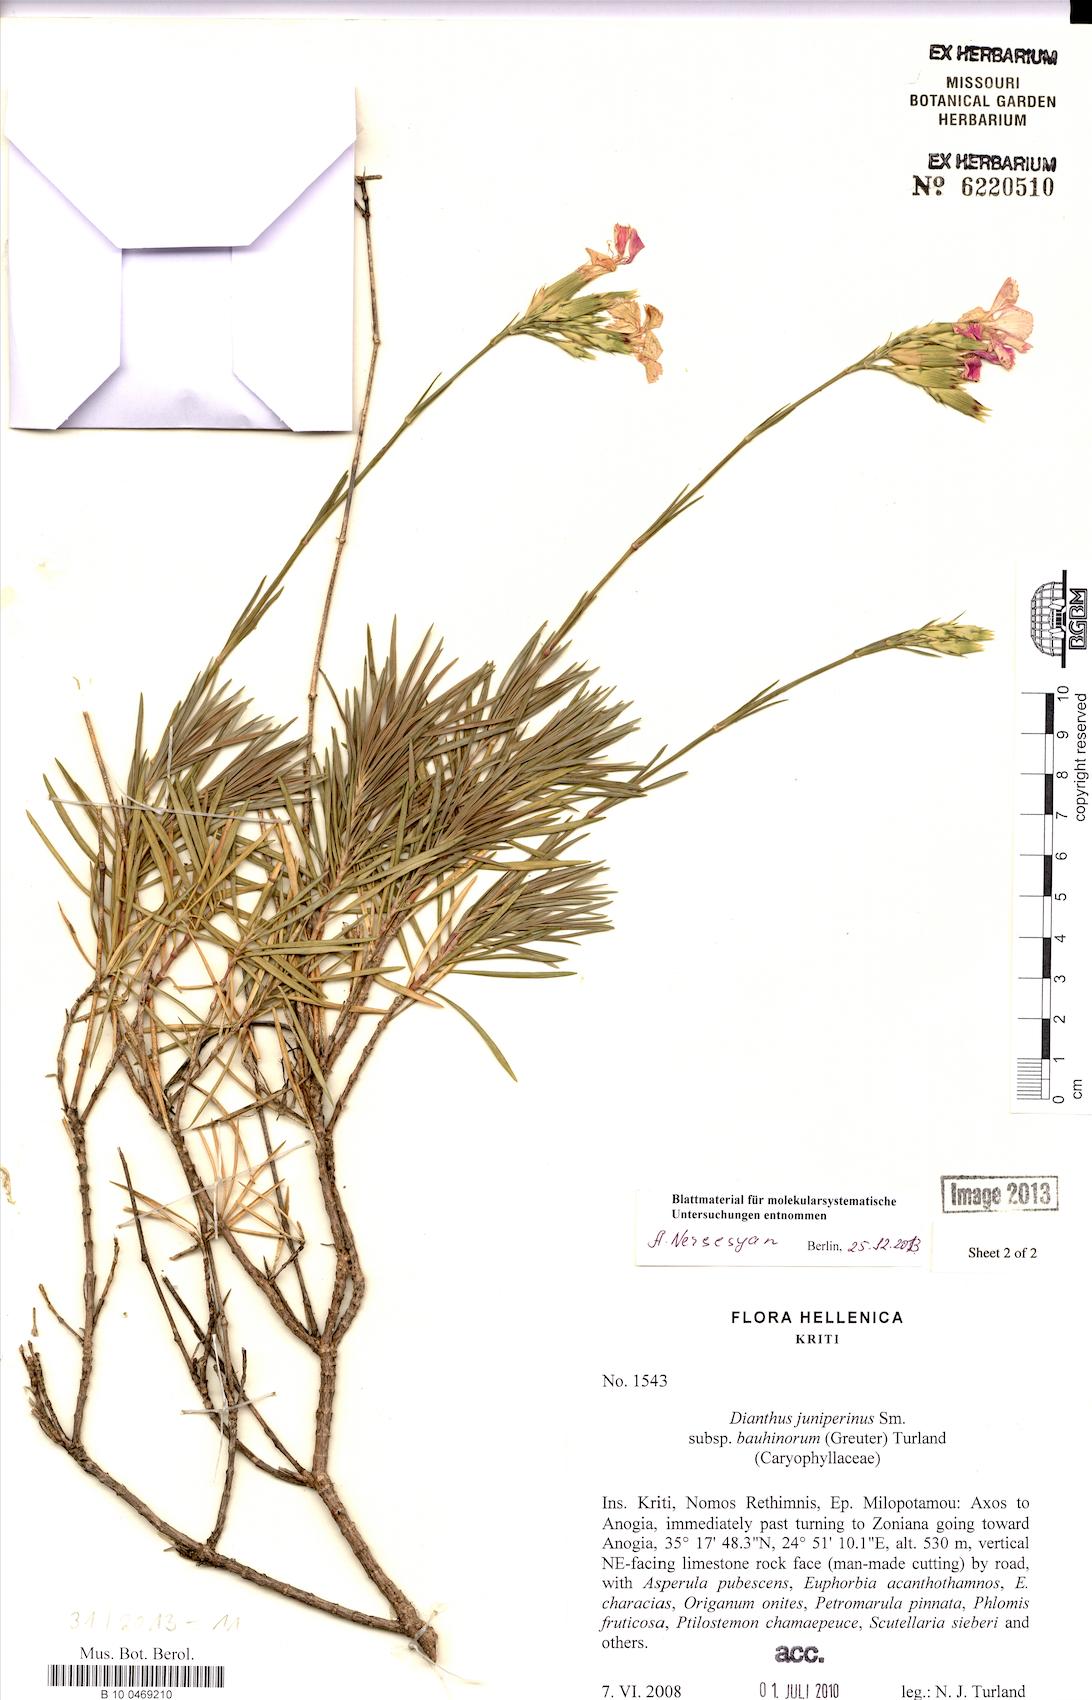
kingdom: Plantae
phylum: Tracheophyta
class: Magnoliopsida
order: Caryophyllales
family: Caryophyllaceae
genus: Dianthus
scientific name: Dianthus juniperinus
